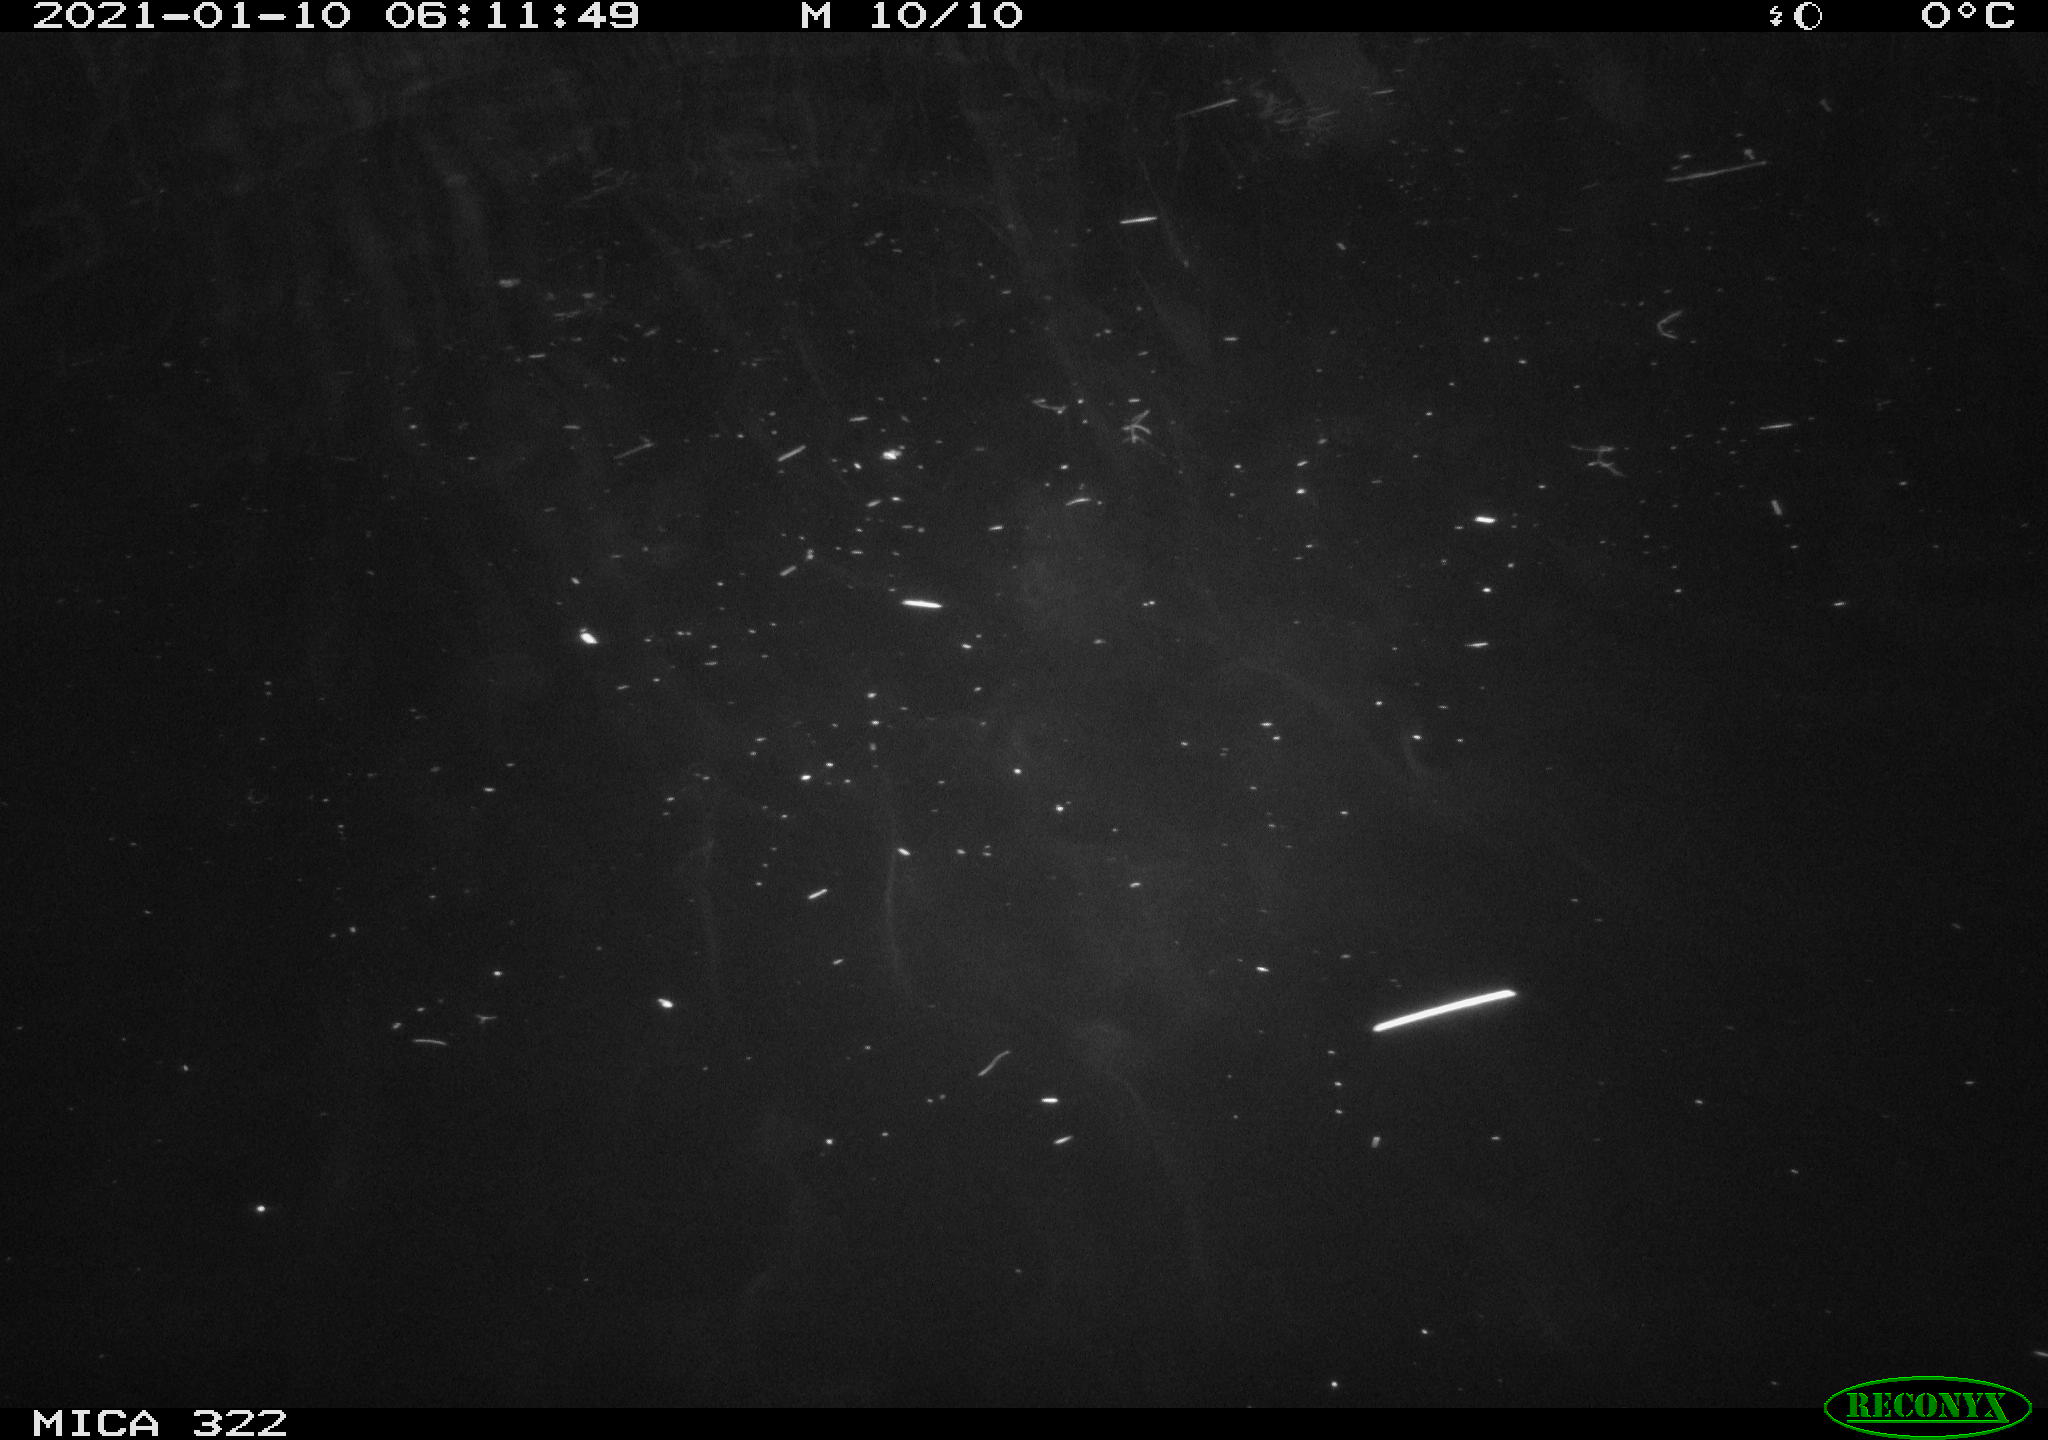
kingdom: Animalia
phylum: Chordata
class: Aves
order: Anseriformes
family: Anatidae
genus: Mareca
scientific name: Mareca strepera
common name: Gadwall
